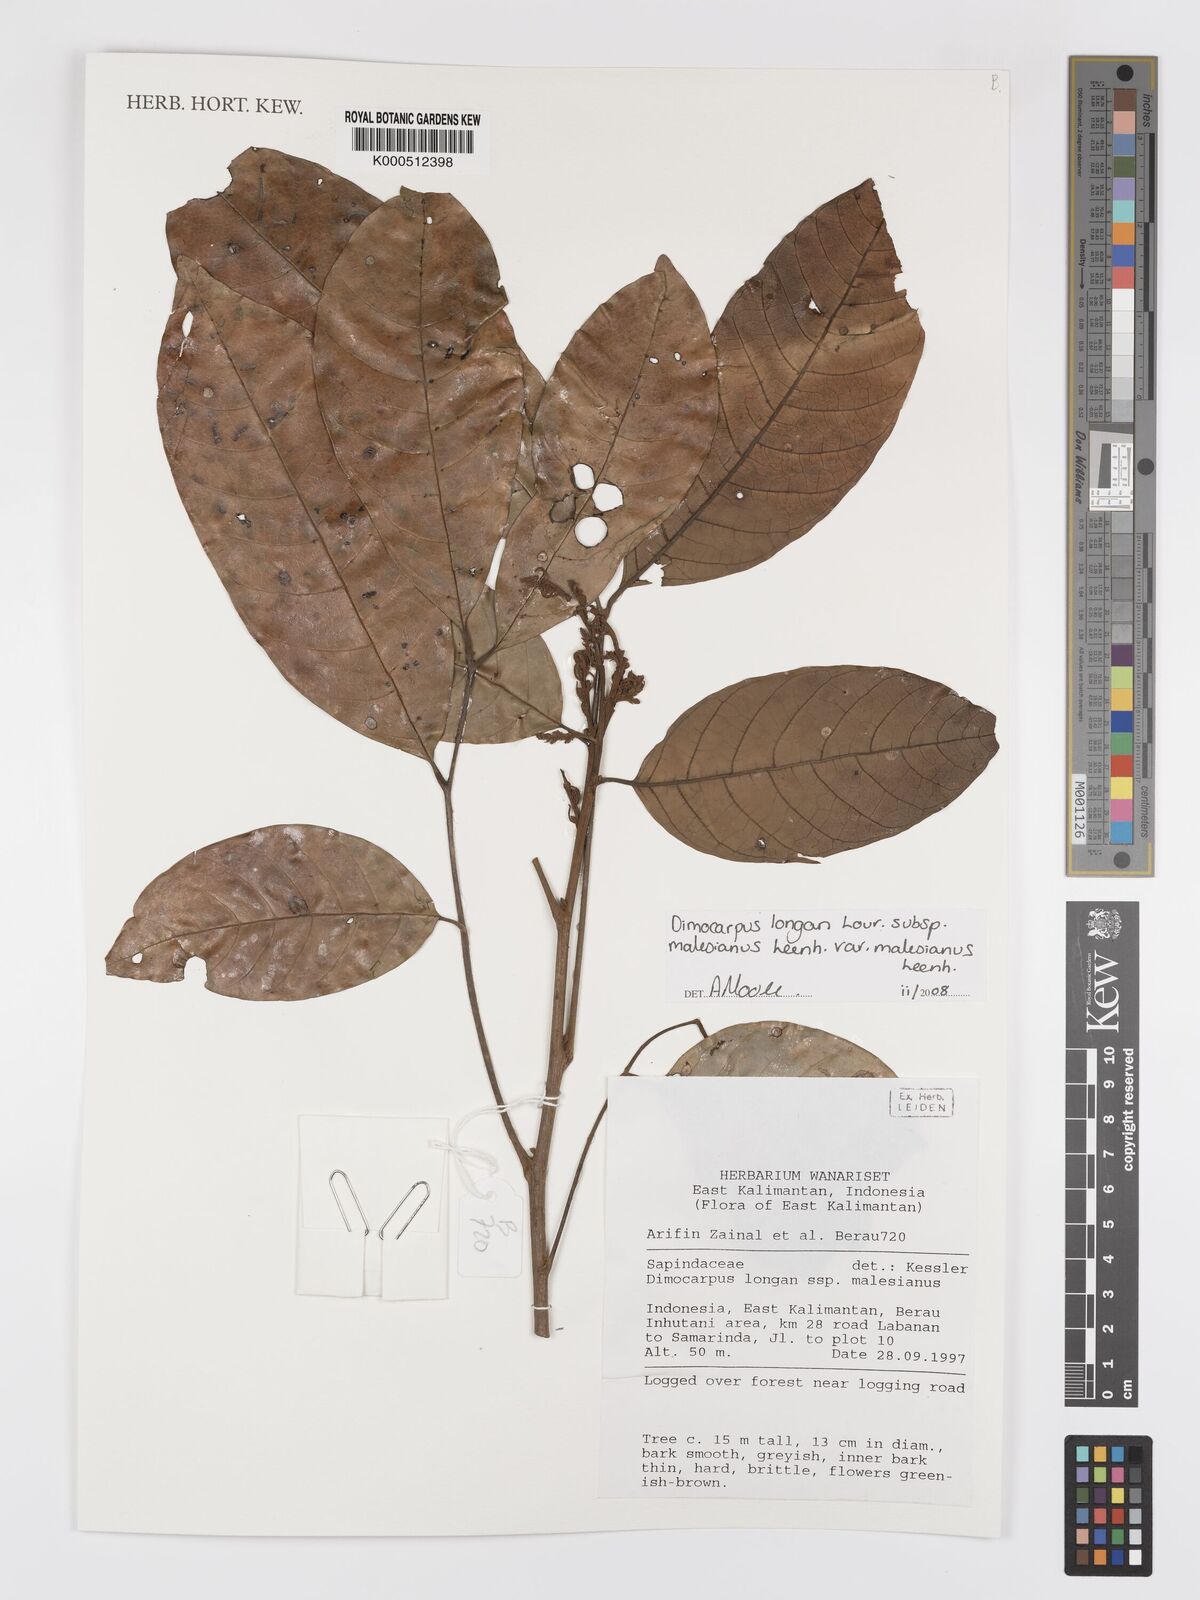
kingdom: Plantae
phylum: Tracheophyta
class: Magnoliopsida
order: Sapindales
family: Sapindaceae
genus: Dimocarpus
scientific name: Dimocarpus malesianus
